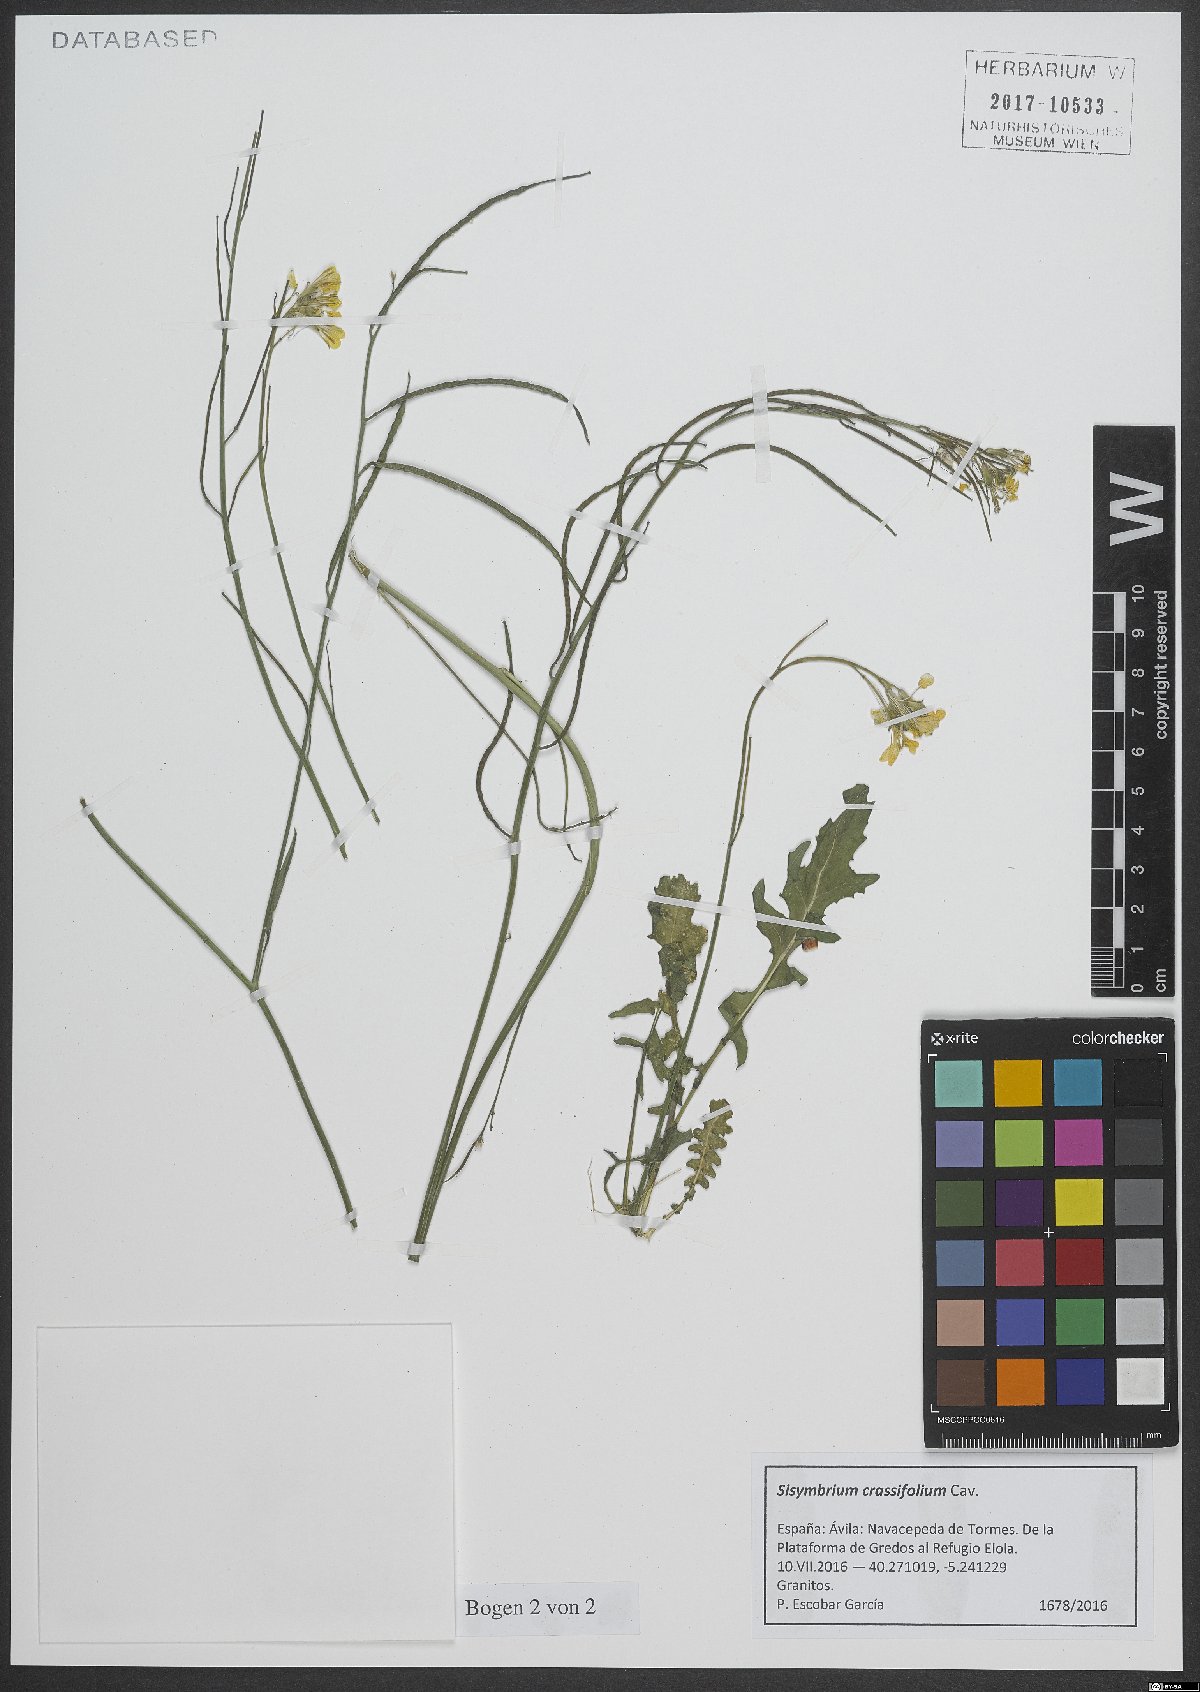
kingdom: Plantae
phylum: Tracheophyta
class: Magnoliopsida
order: Brassicales
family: Brassicaceae
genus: Sisymbrium
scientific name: Sisymbrium crassifolium
